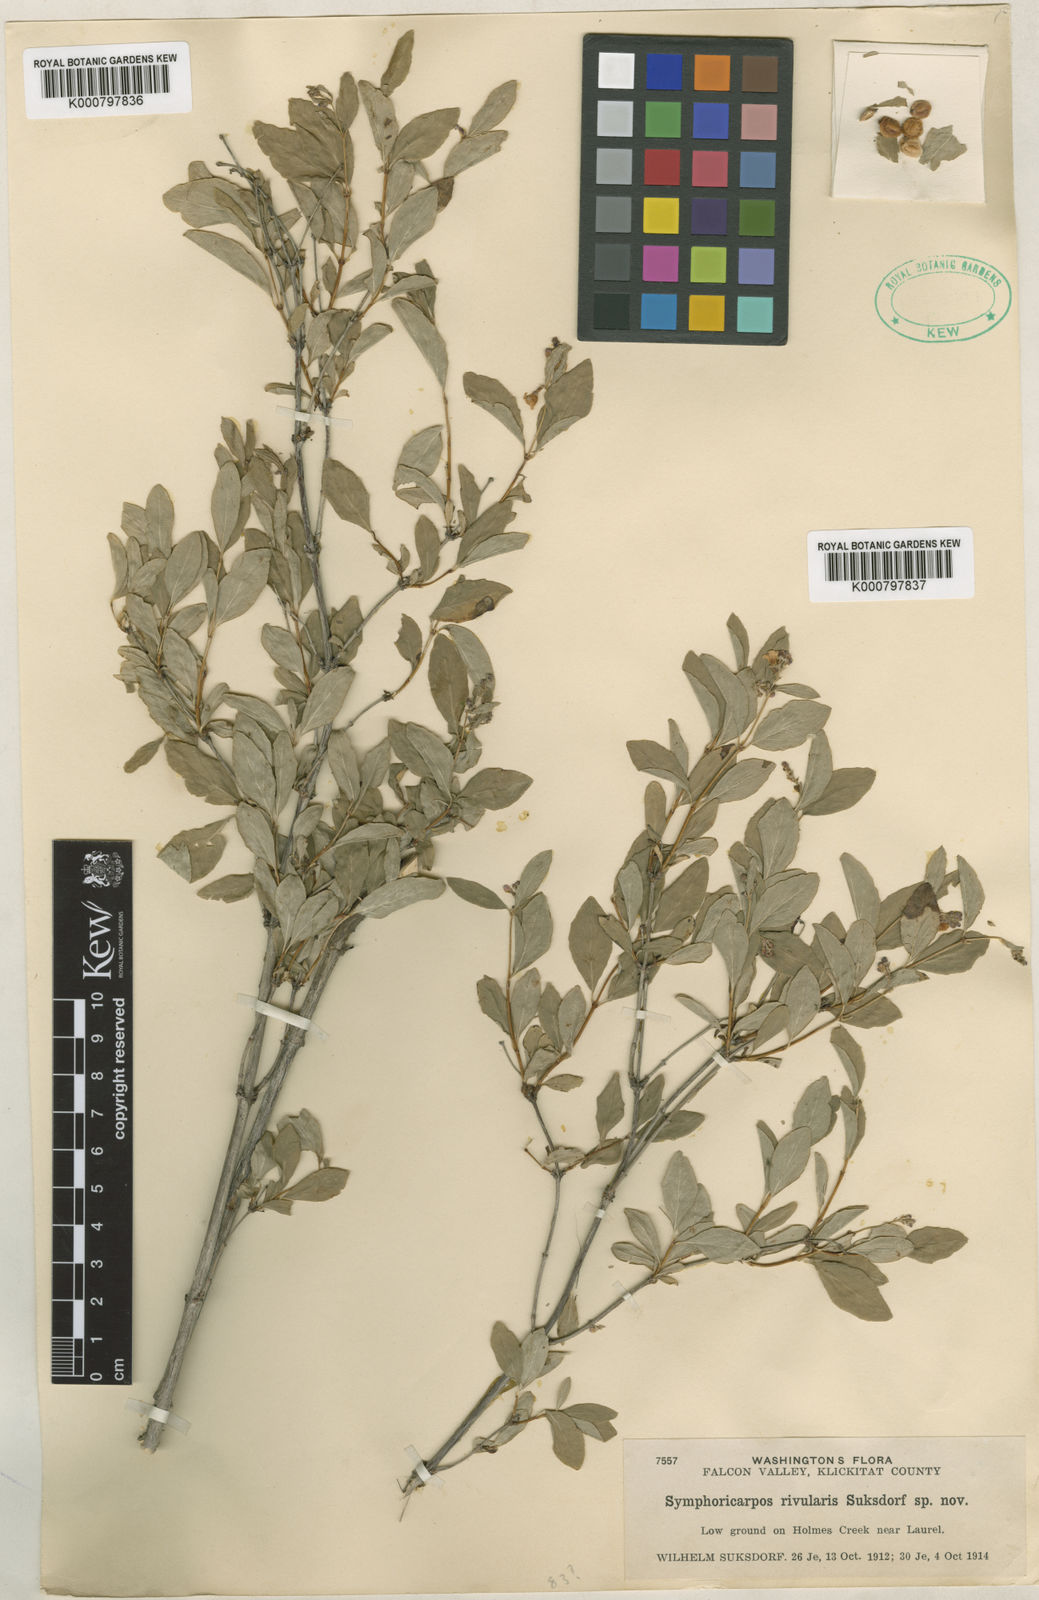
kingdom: Plantae
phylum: Tracheophyta
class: Magnoliopsida
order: Dipsacales
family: Caprifoliaceae
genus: Symphoricarpos
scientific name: Symphoricarpos albus
